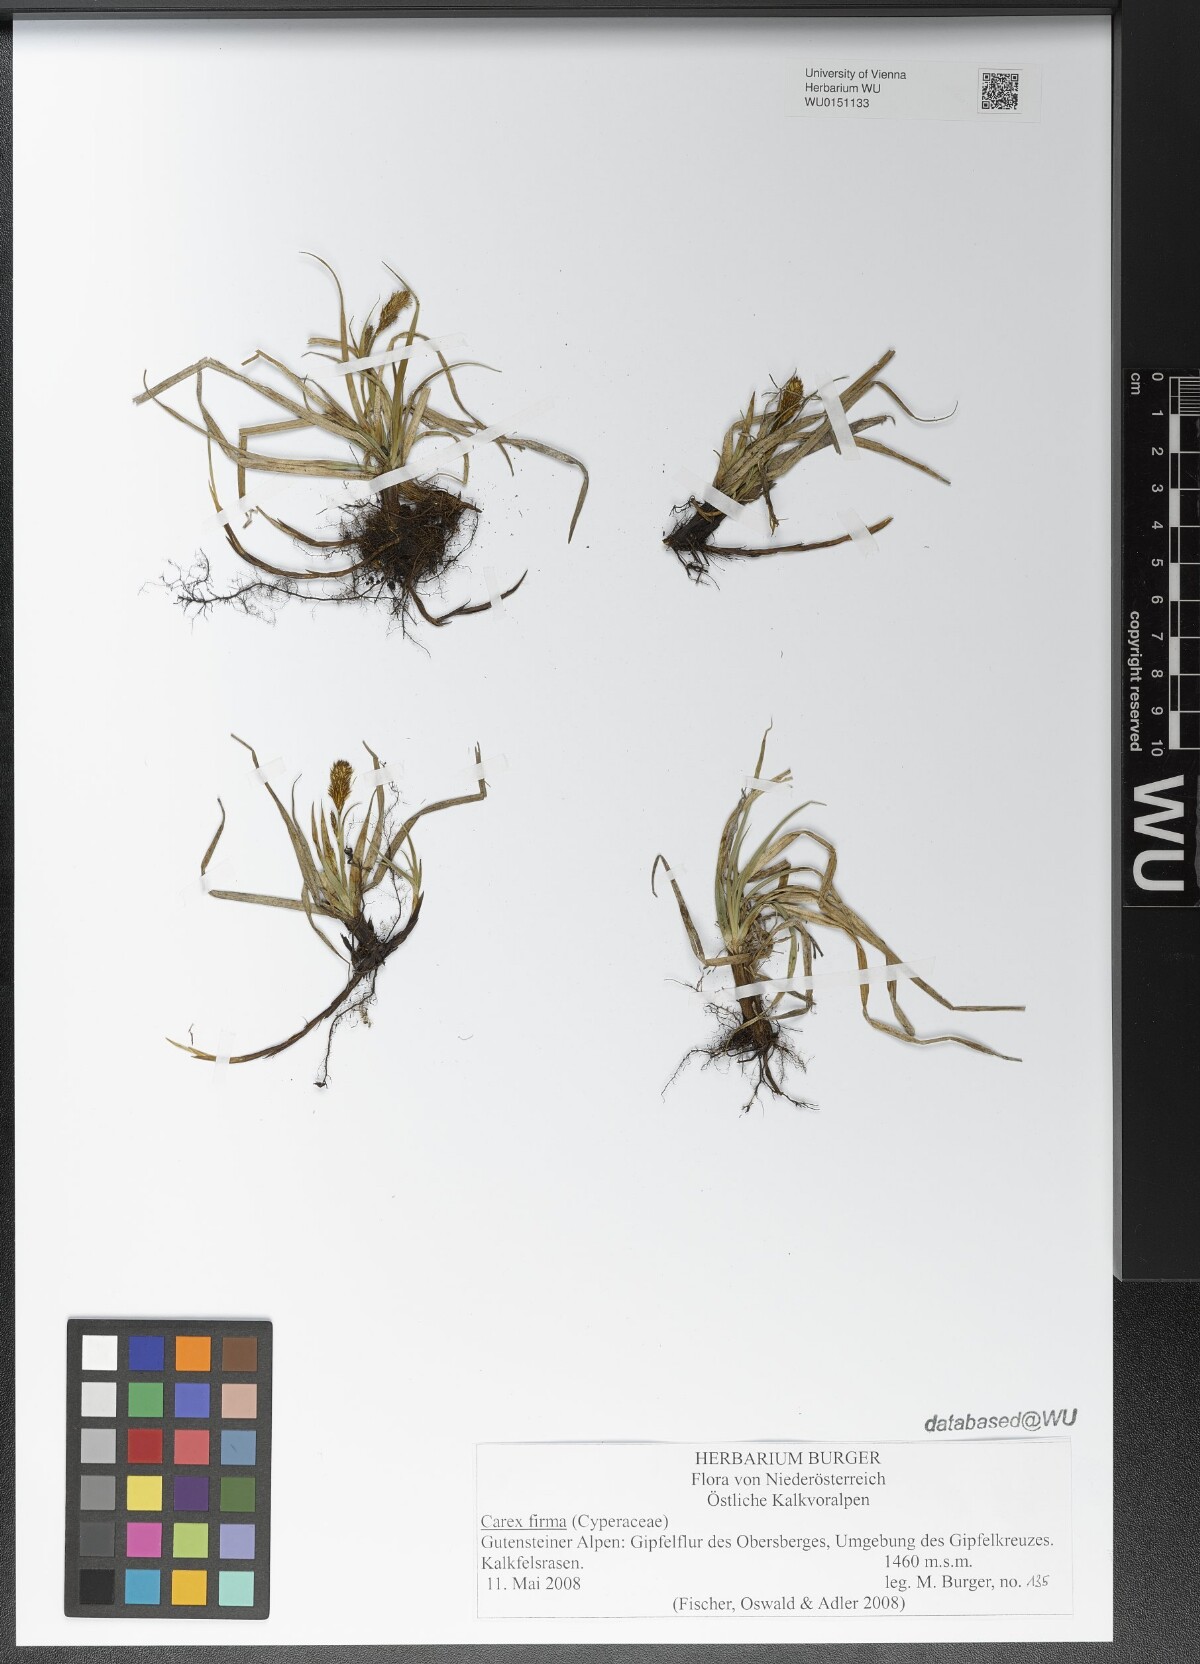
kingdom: Plantae
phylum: Tracheophyta
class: Liliopsida
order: Poales
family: Cyperaceae
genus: Carex
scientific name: Carex firma
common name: Dwarf pillow sedge
